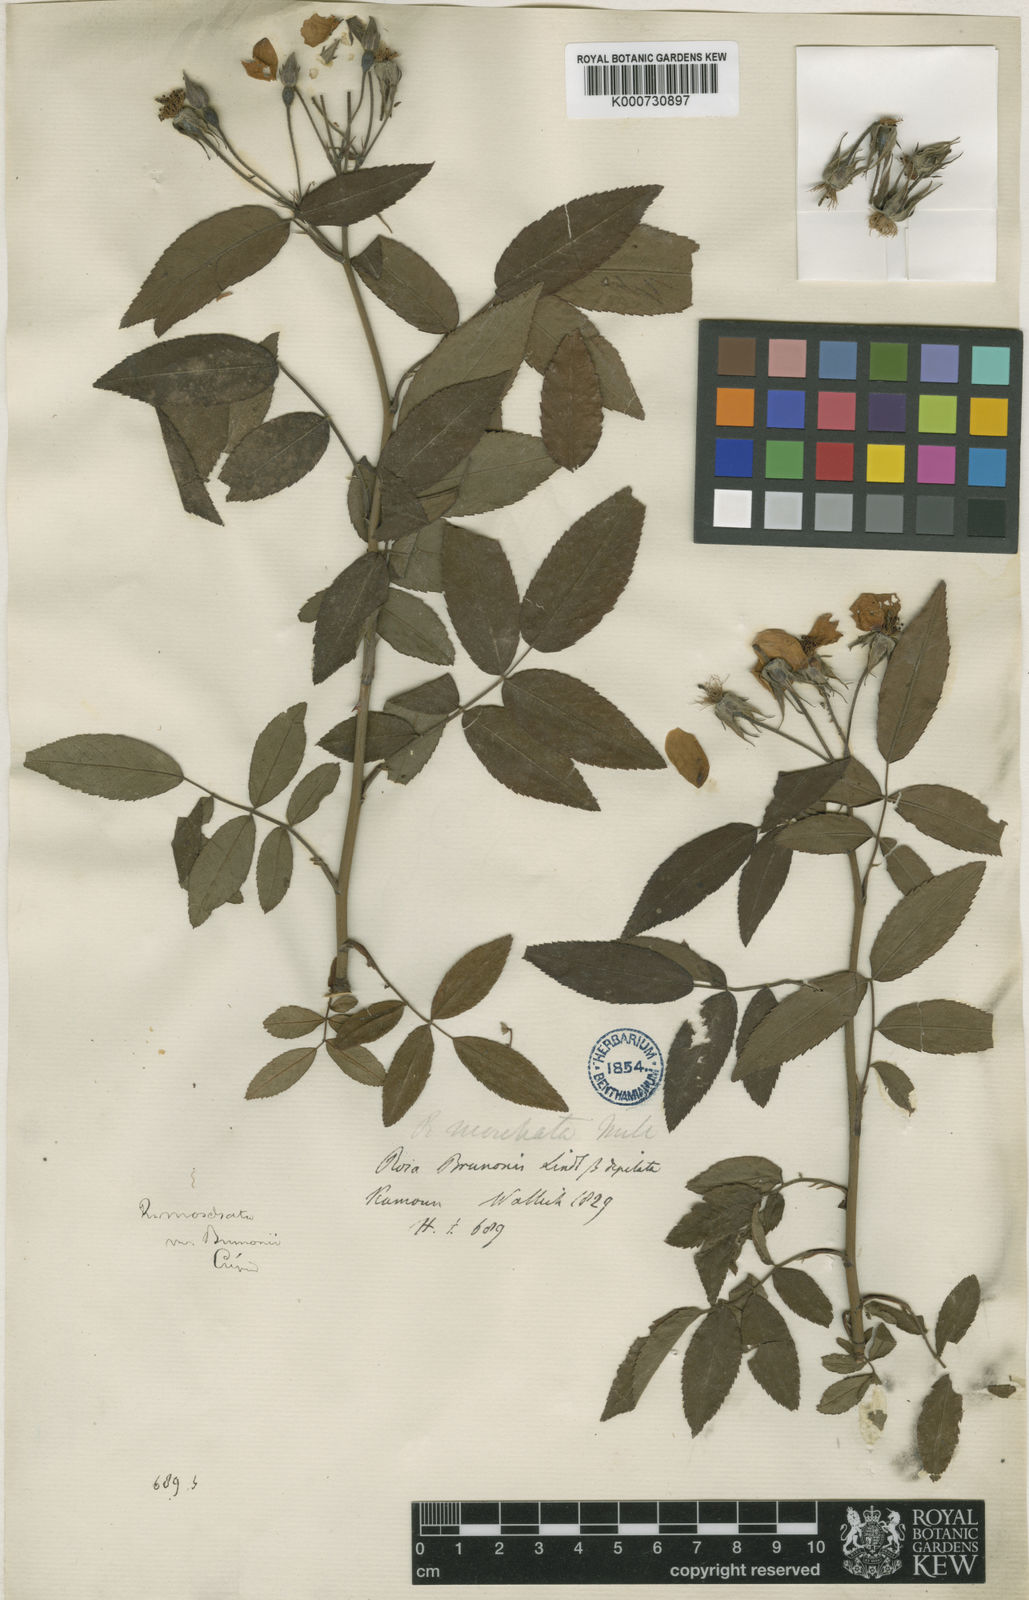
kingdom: Plantae
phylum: Tracheophyta
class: Magnoliopsida
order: Rosales
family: Rosaceae
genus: Rosa
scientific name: Rosa moschata
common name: Musk rose
